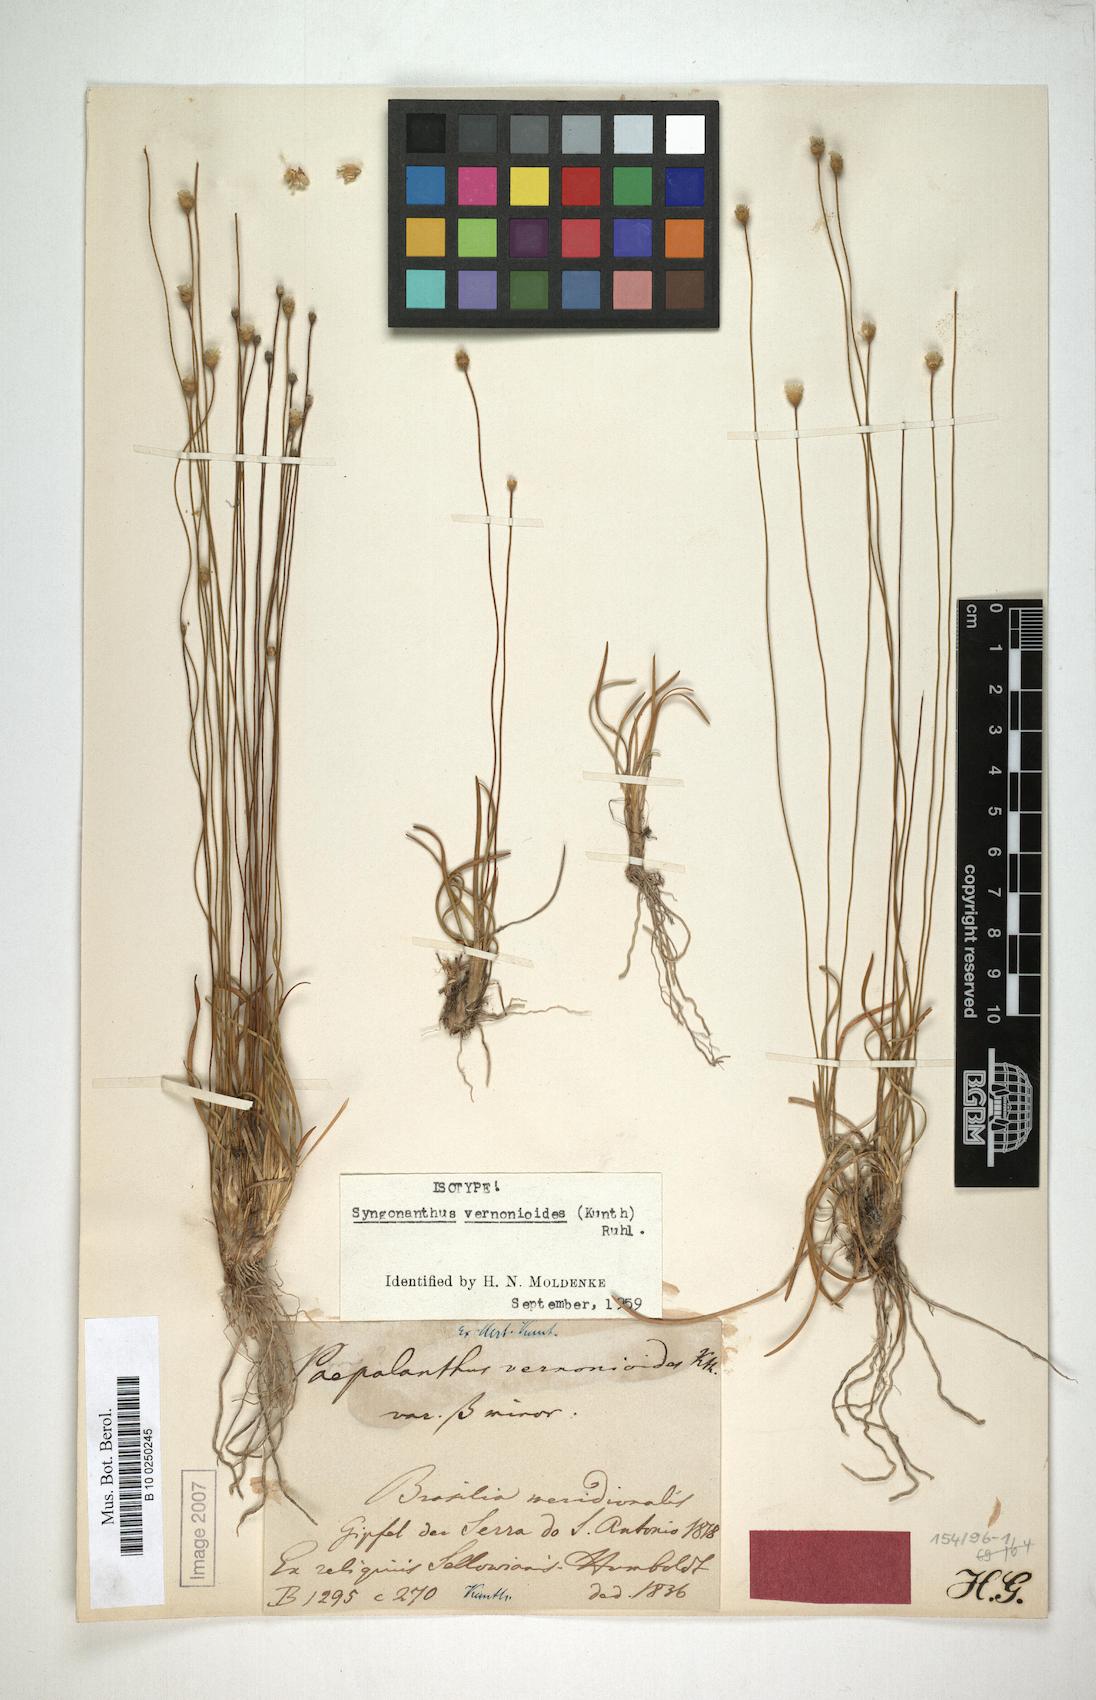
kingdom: Plantae
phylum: Tracheophyta
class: Liliopsida
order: Poales
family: Eriocaulaceae
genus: Comanthera
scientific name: Comanthera centauroides
